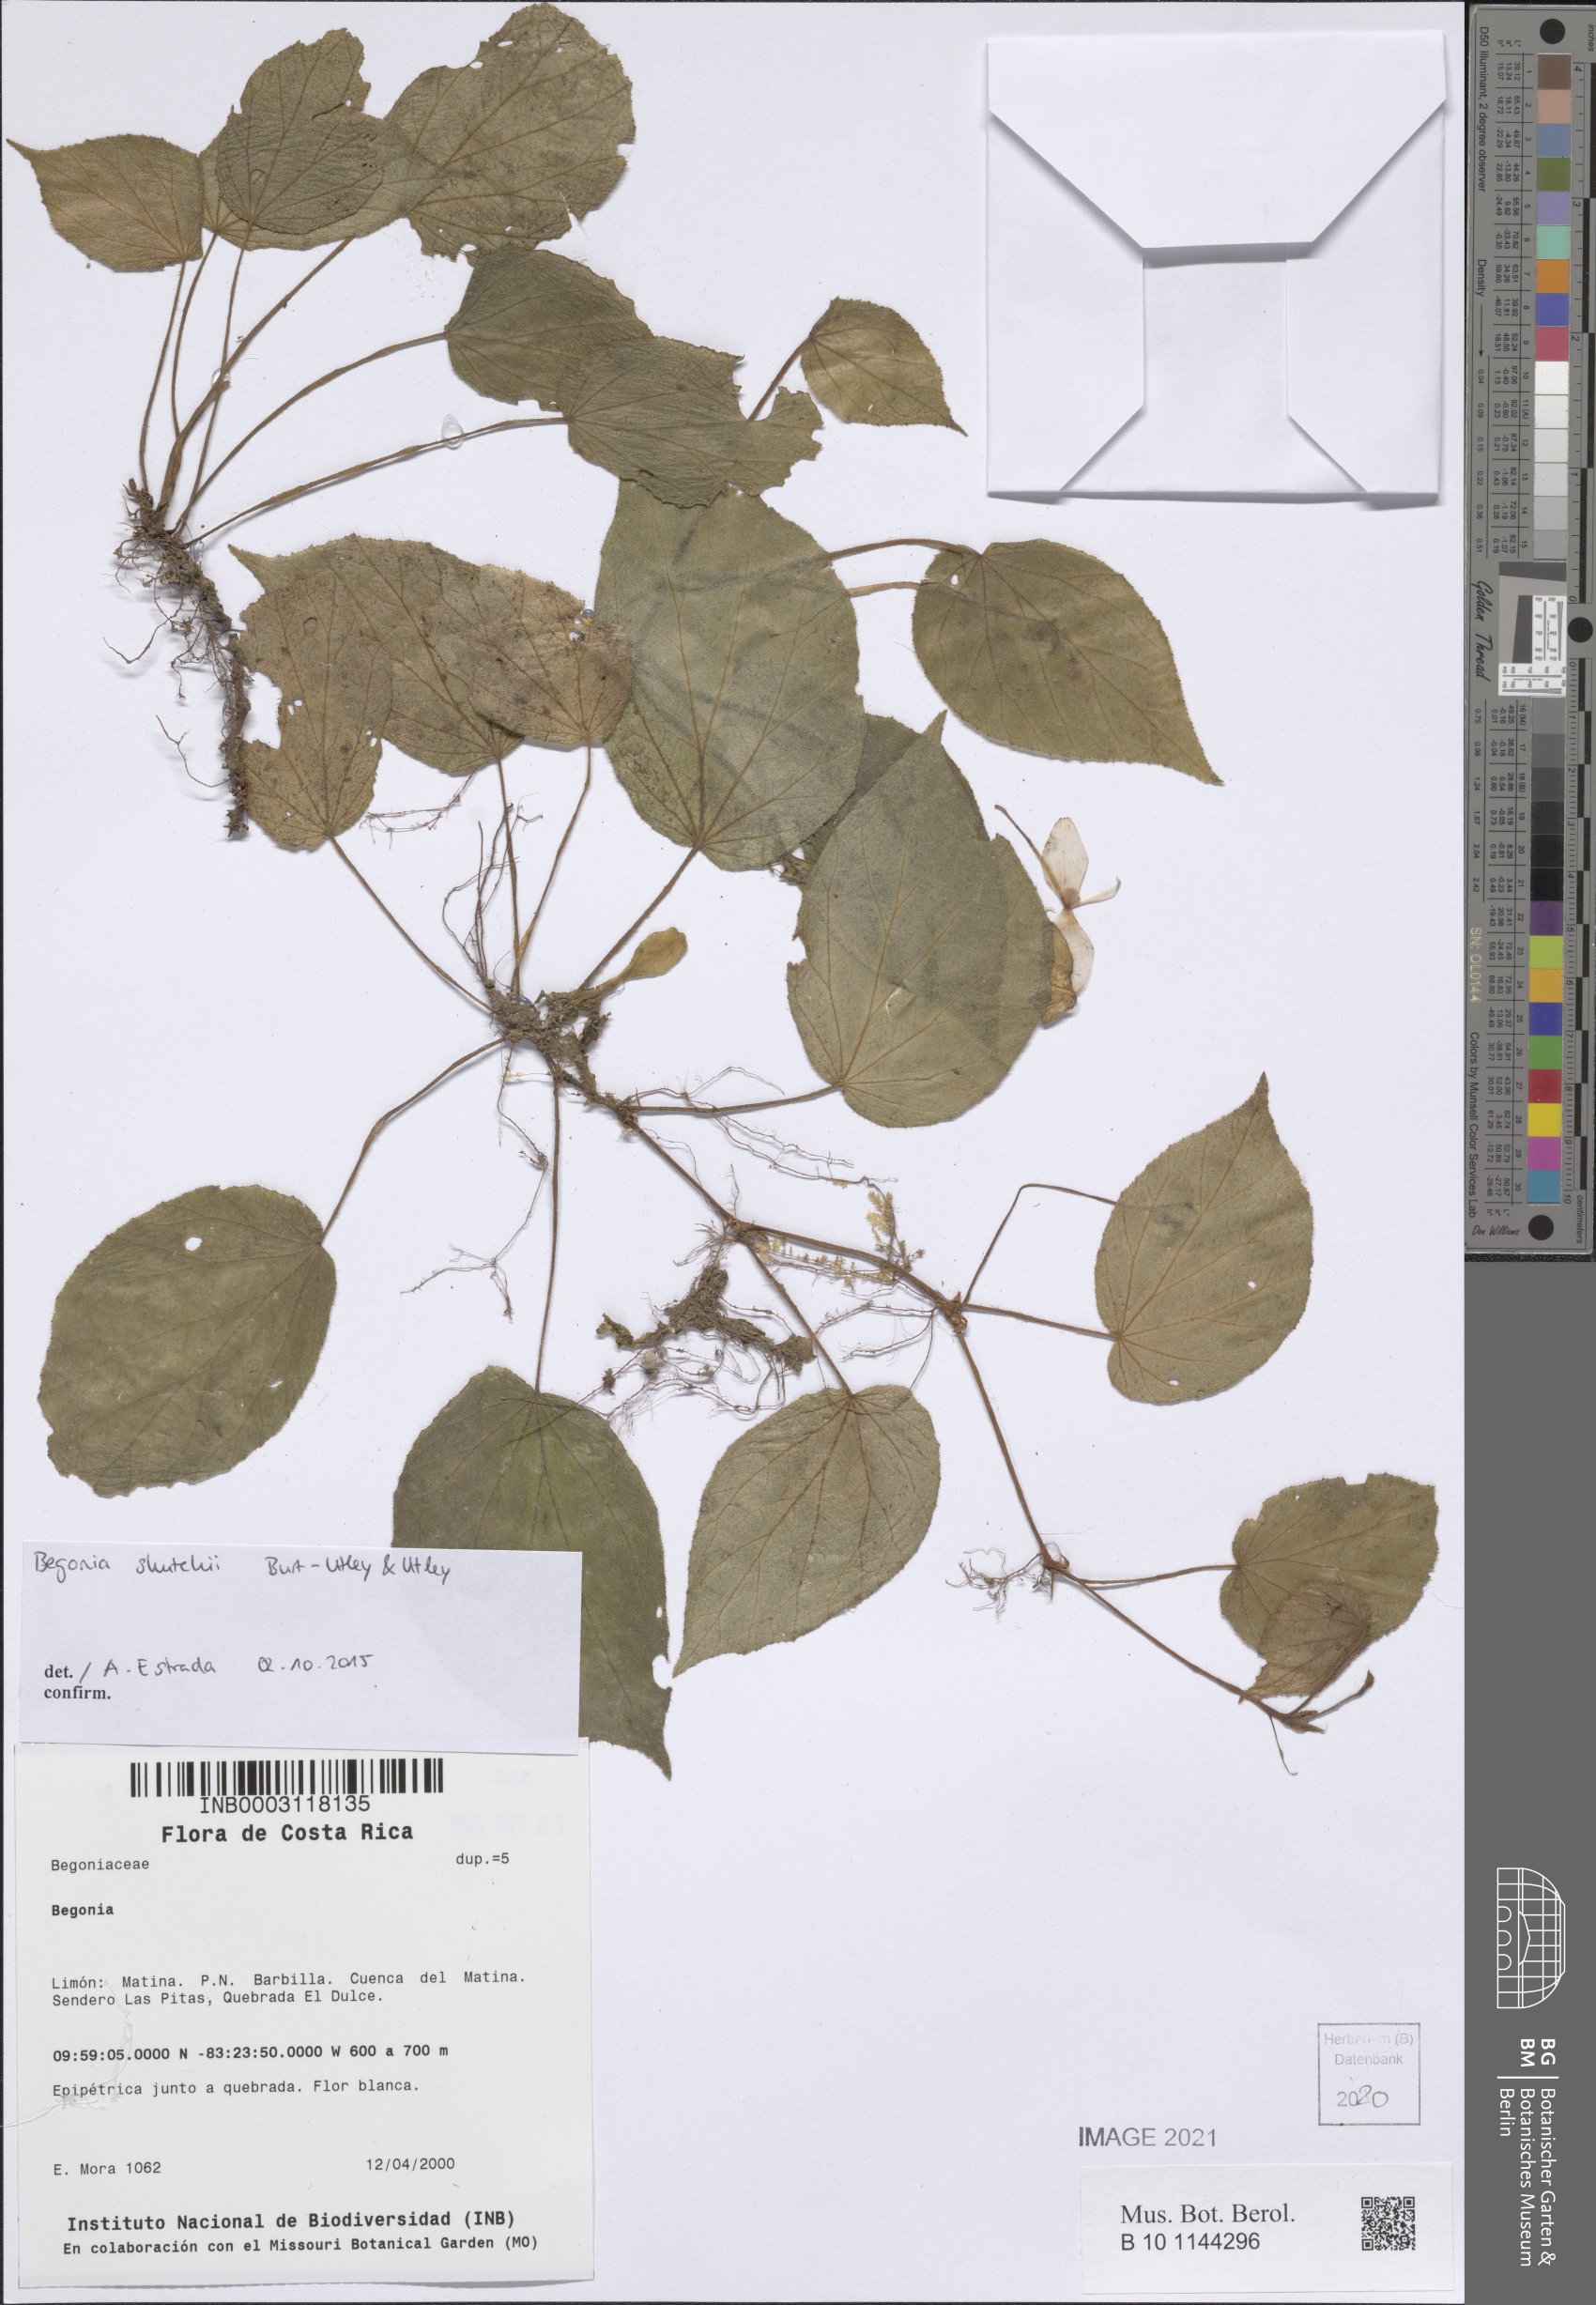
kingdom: Plantae
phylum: Tracheophyta
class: Magnoliopsida
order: Cucurbitales
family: Begoniaceae
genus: Begonia
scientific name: Begonia
